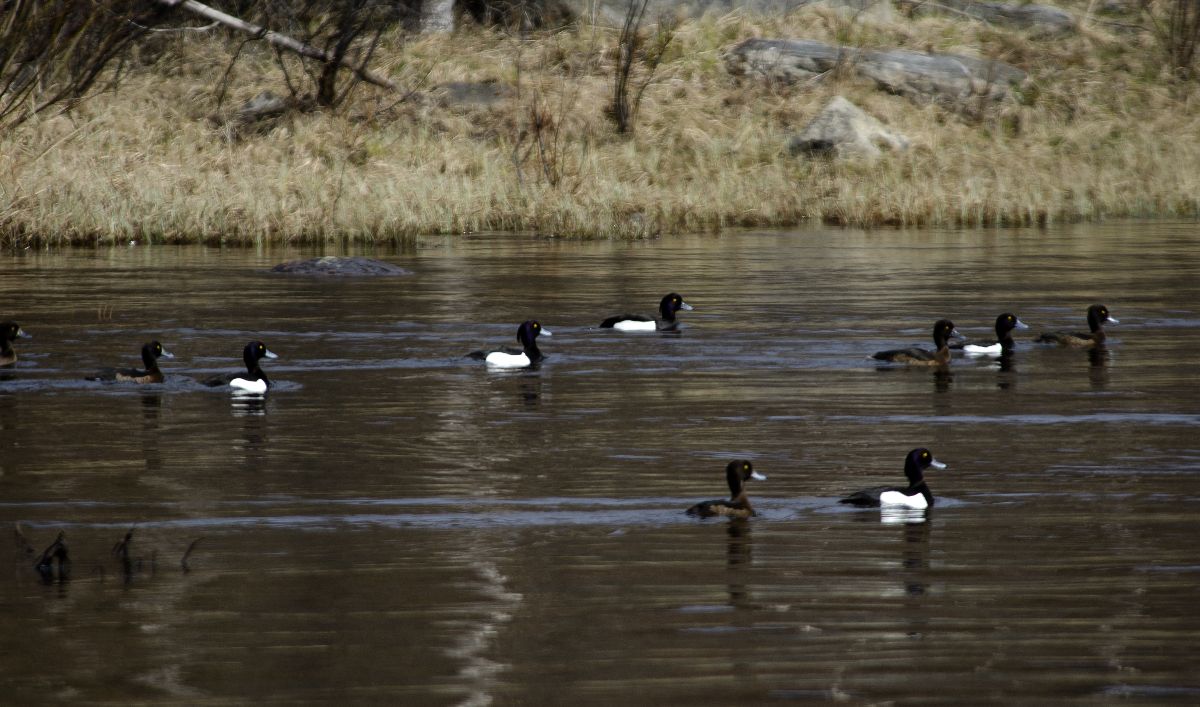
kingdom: Animalia
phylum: Chordata
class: Aves
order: Anseriformes
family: Anatidae
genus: Aythya
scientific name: Aythya fuligula
